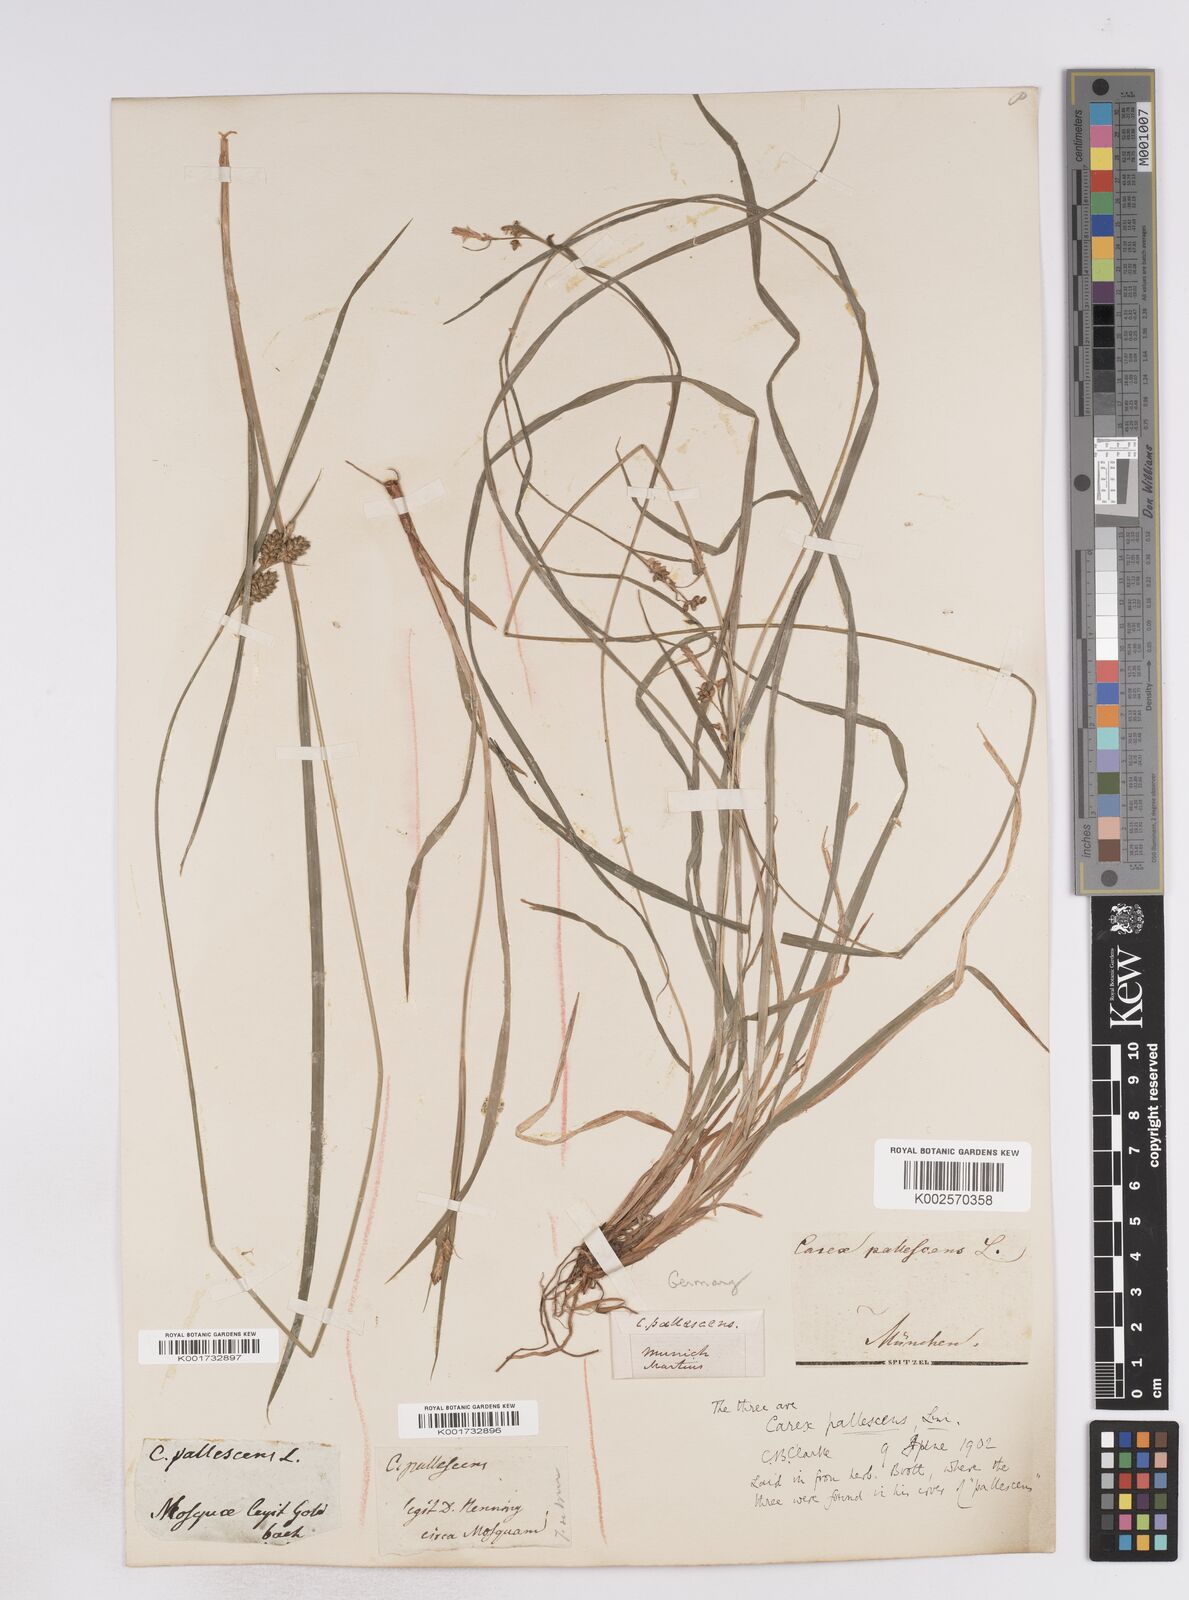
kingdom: Plantae
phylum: Tracheophyta
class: Liliopsida
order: Poales
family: Cyperaceae
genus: Carex
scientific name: Carex pallescens
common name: Pale sedge
